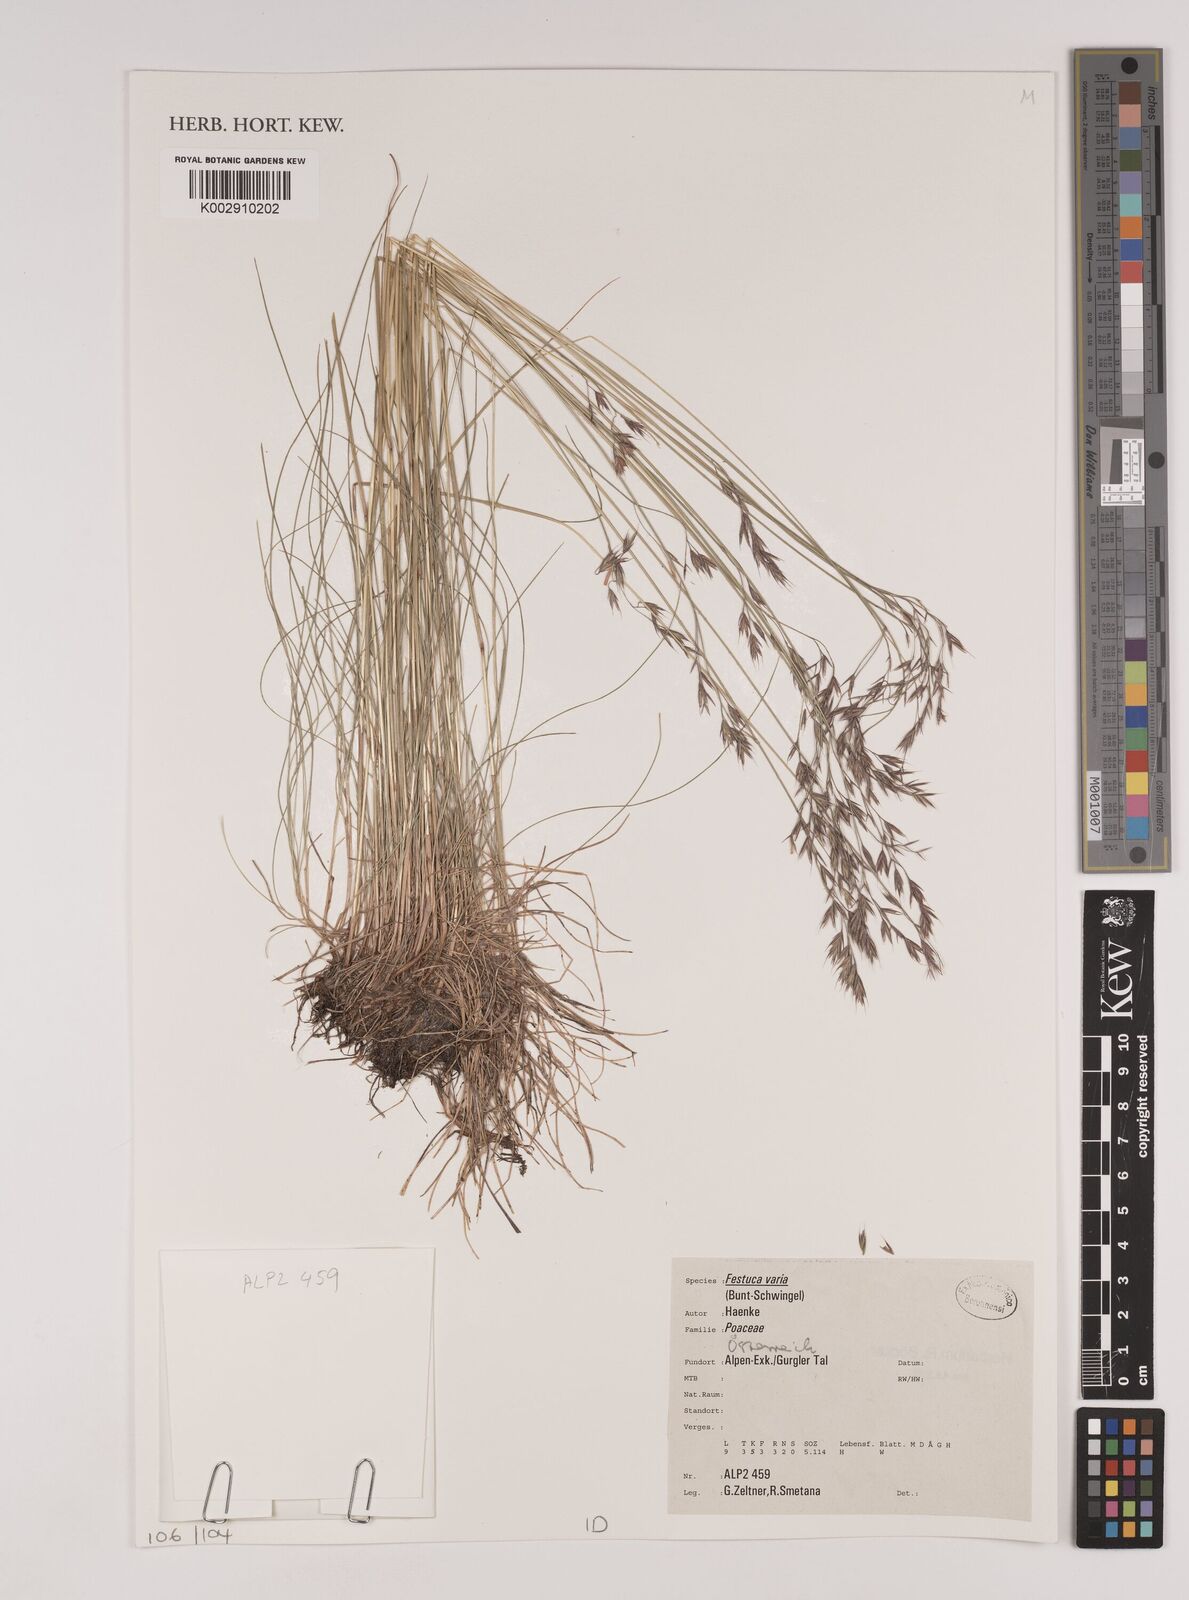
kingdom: Plantae
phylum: Tracheophyta
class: Liliopsida
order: Poales
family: Poaceae
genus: Festuca
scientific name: Festuca varia
